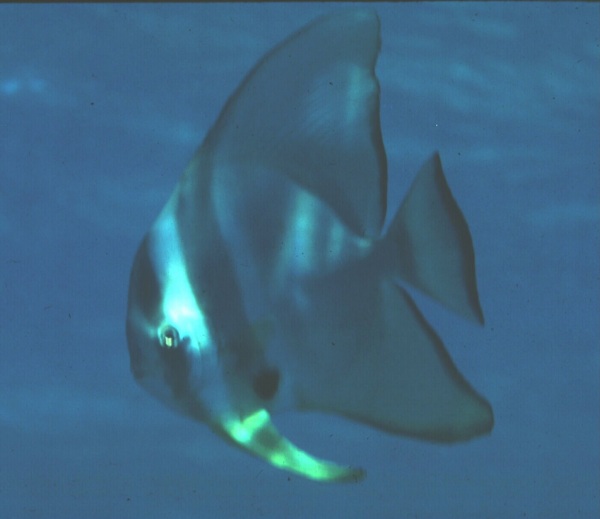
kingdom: Animalia
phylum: Chordata
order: Perciformes
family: Ephippidae
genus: Platax
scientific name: Platax
